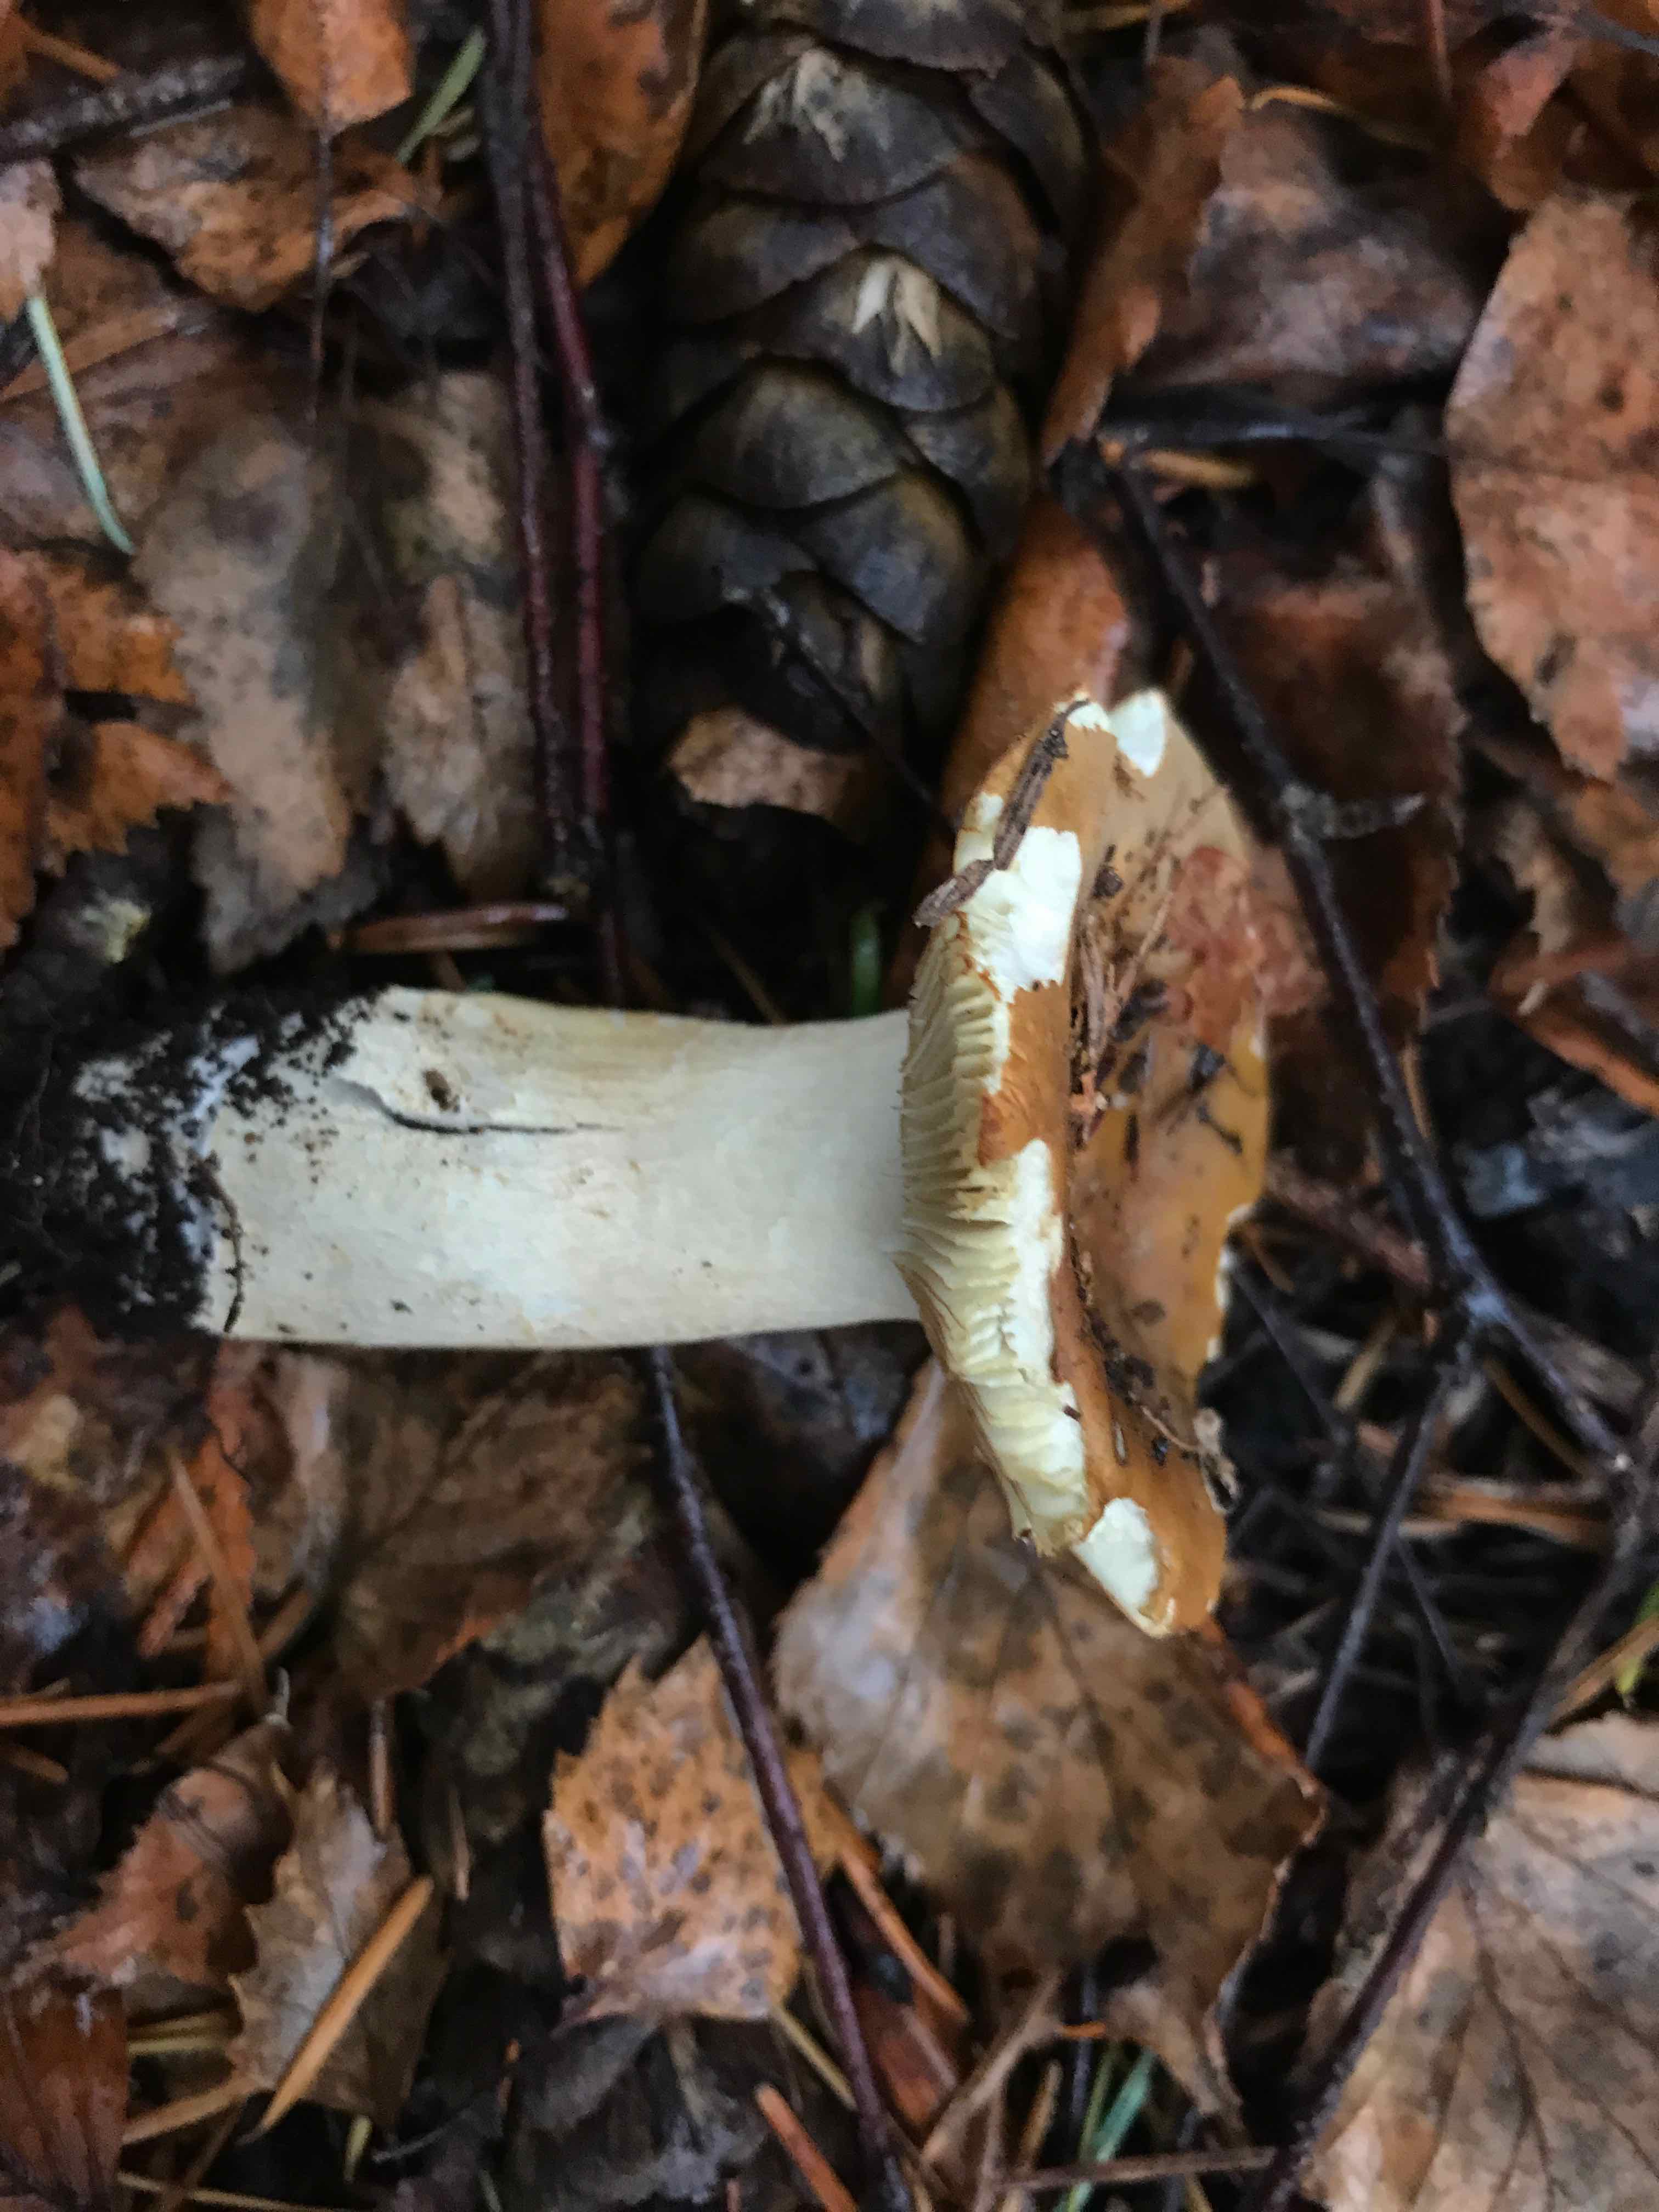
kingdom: Fungi
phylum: Basidiomycota
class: Agaricomycetes
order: Russulales
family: Russulaceae
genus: Russula
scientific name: Russula
